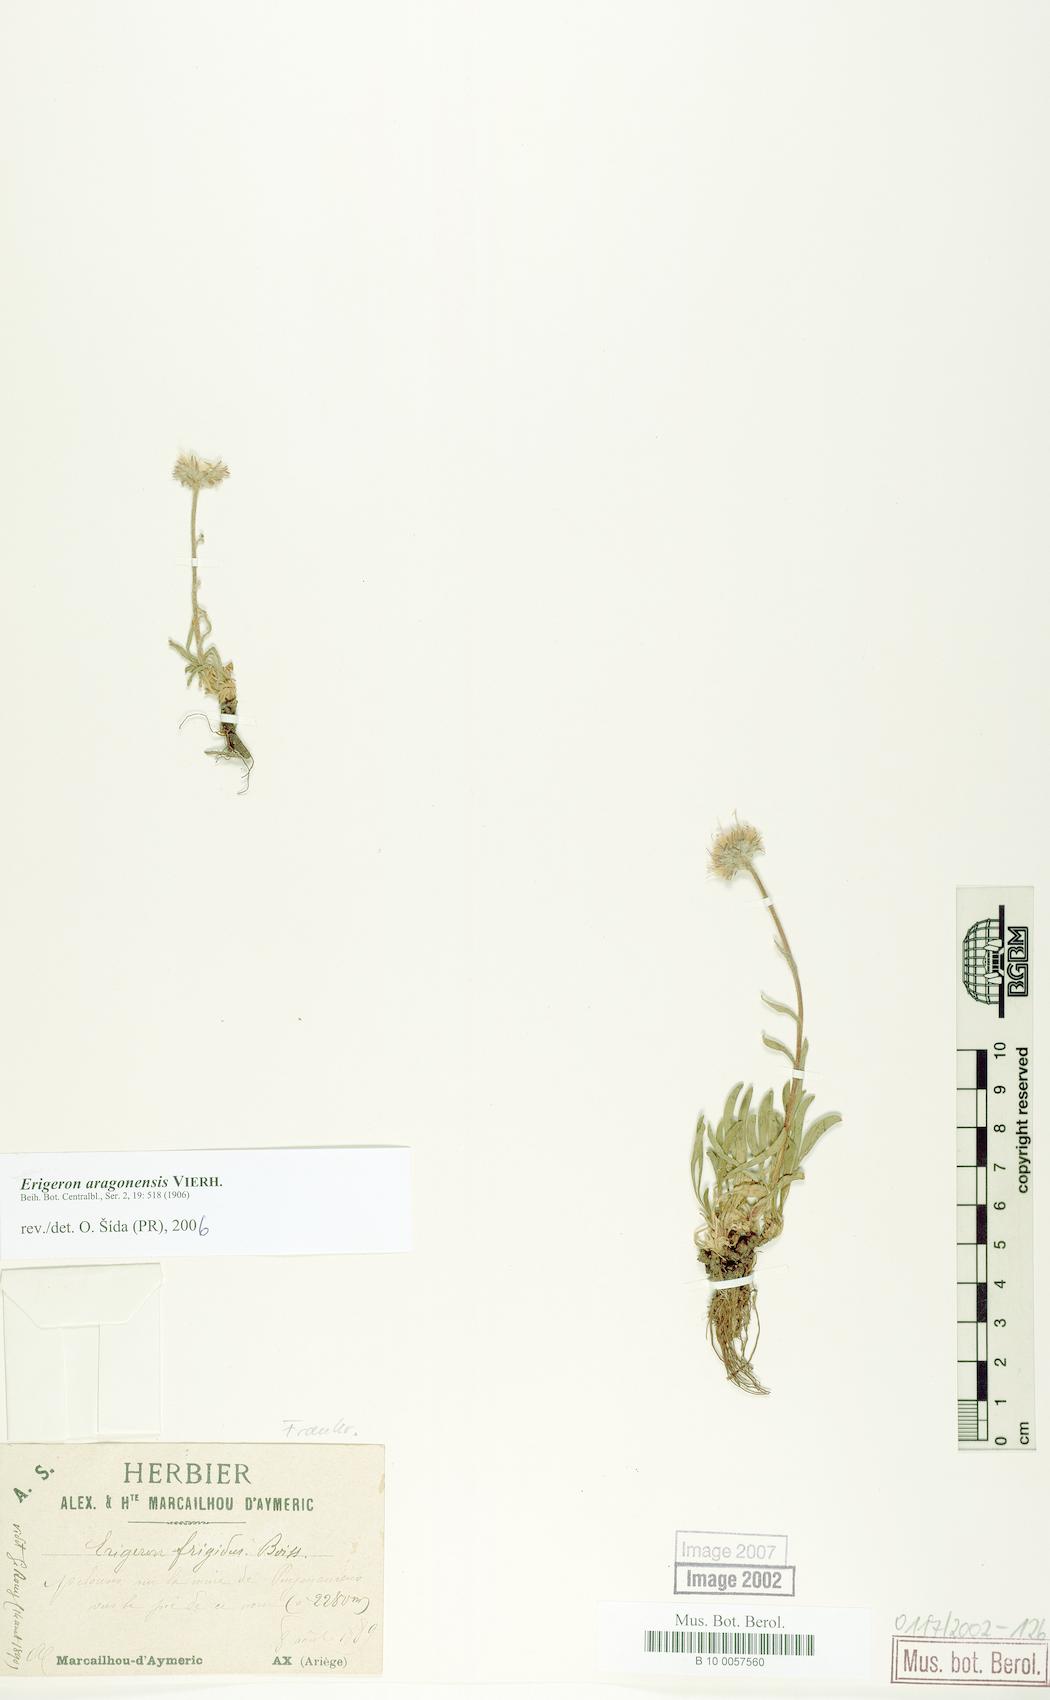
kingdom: Plantae
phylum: Tracheophyta
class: Magnoliopsida
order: Asterales
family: Asteraceae
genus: Erigeron
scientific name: Erigeron aragonensis
